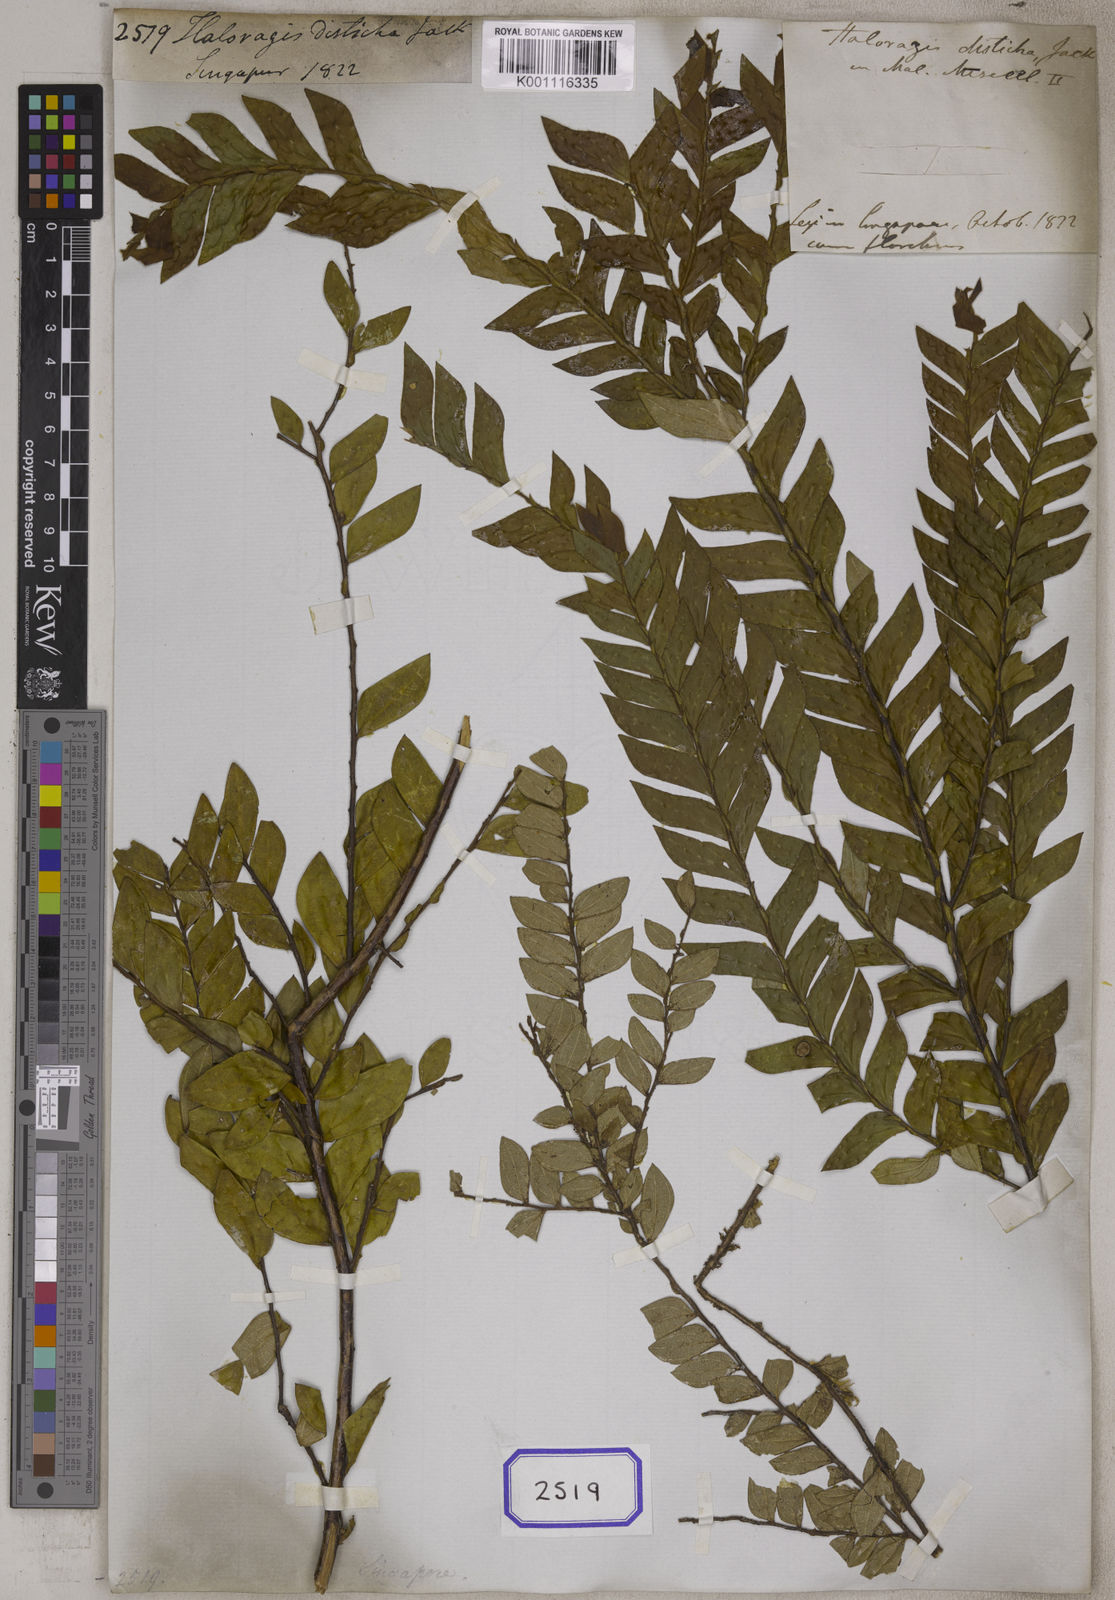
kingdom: Plantae
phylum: Tracheophyta
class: Magnoliopsida
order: Cucurbitales
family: Anisophylleaceae
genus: Anisophyllea
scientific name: Anisophyllea disticha
